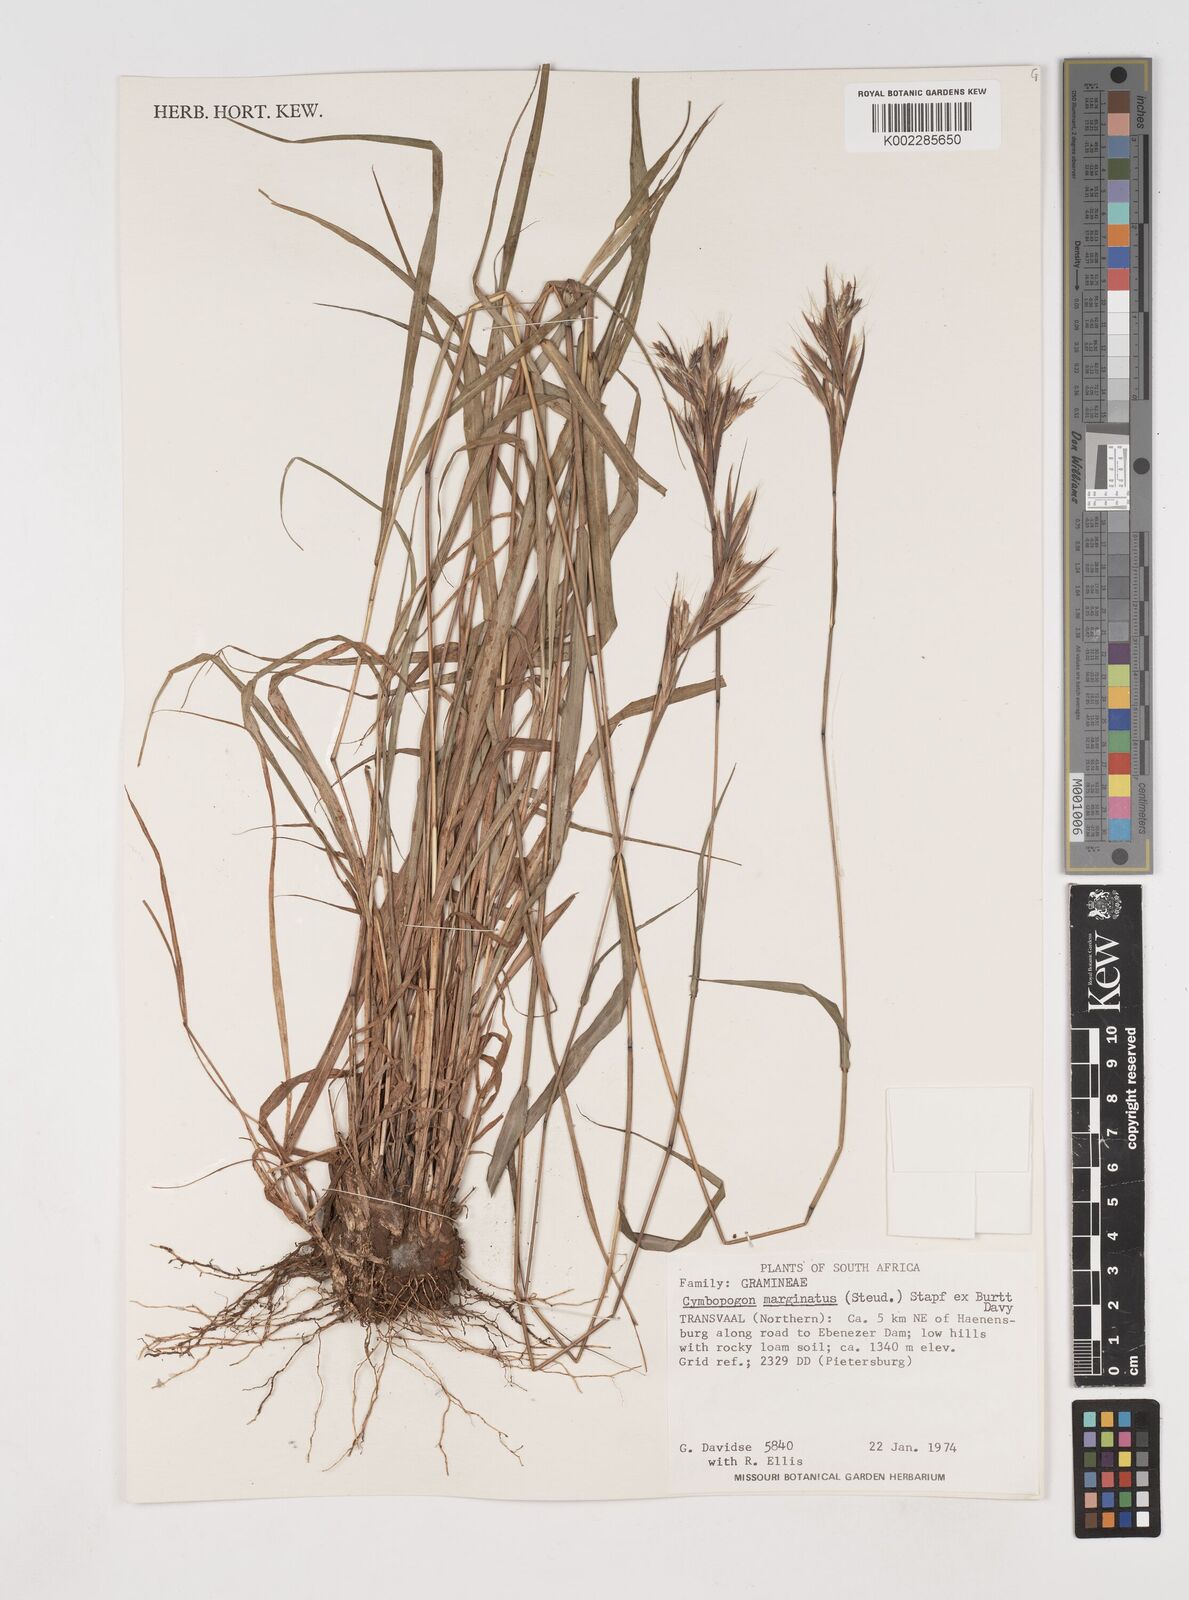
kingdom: Plantae
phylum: Tracheophyta
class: Liliopsida
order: Poales
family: Poaceae
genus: Cymbopogon
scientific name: Cymbopogon marginatus
